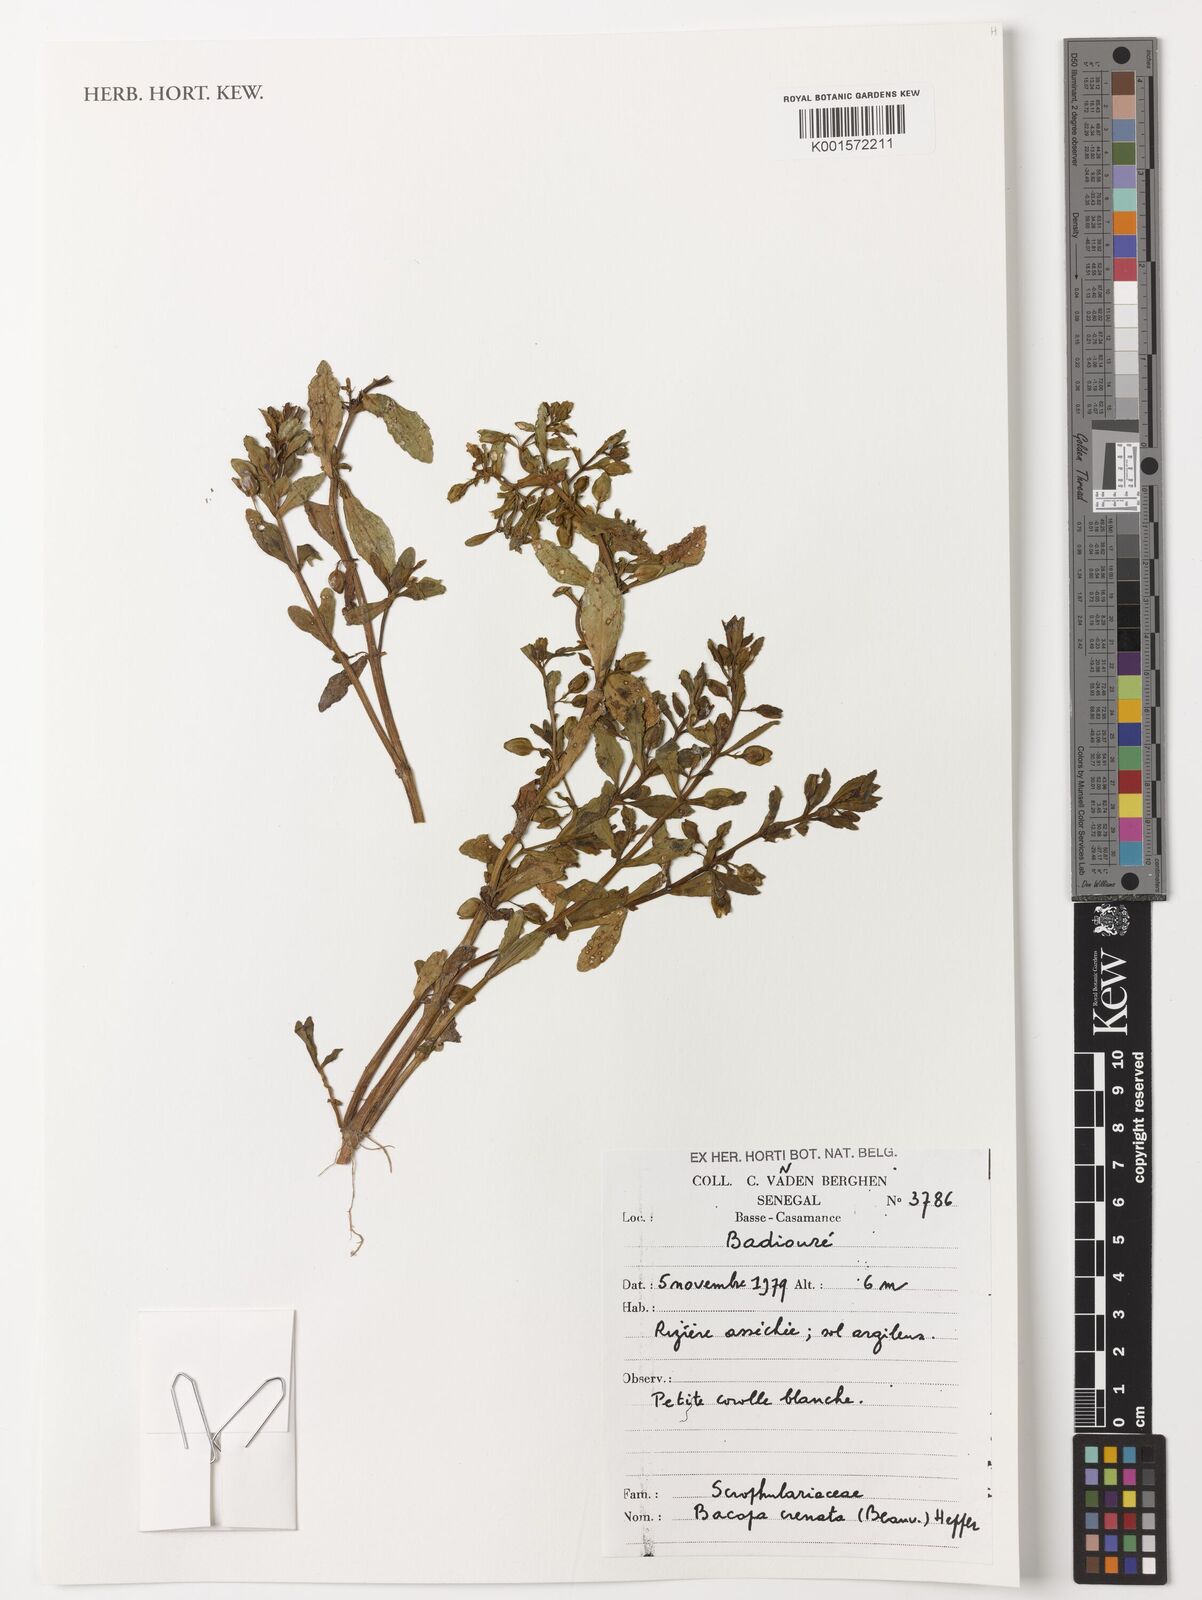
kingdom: Plantae
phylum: Tracheophyta
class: Magnoliopsida
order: Lamiales
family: Plantaginaceae
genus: Bacopa
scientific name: Bacopa crenata
